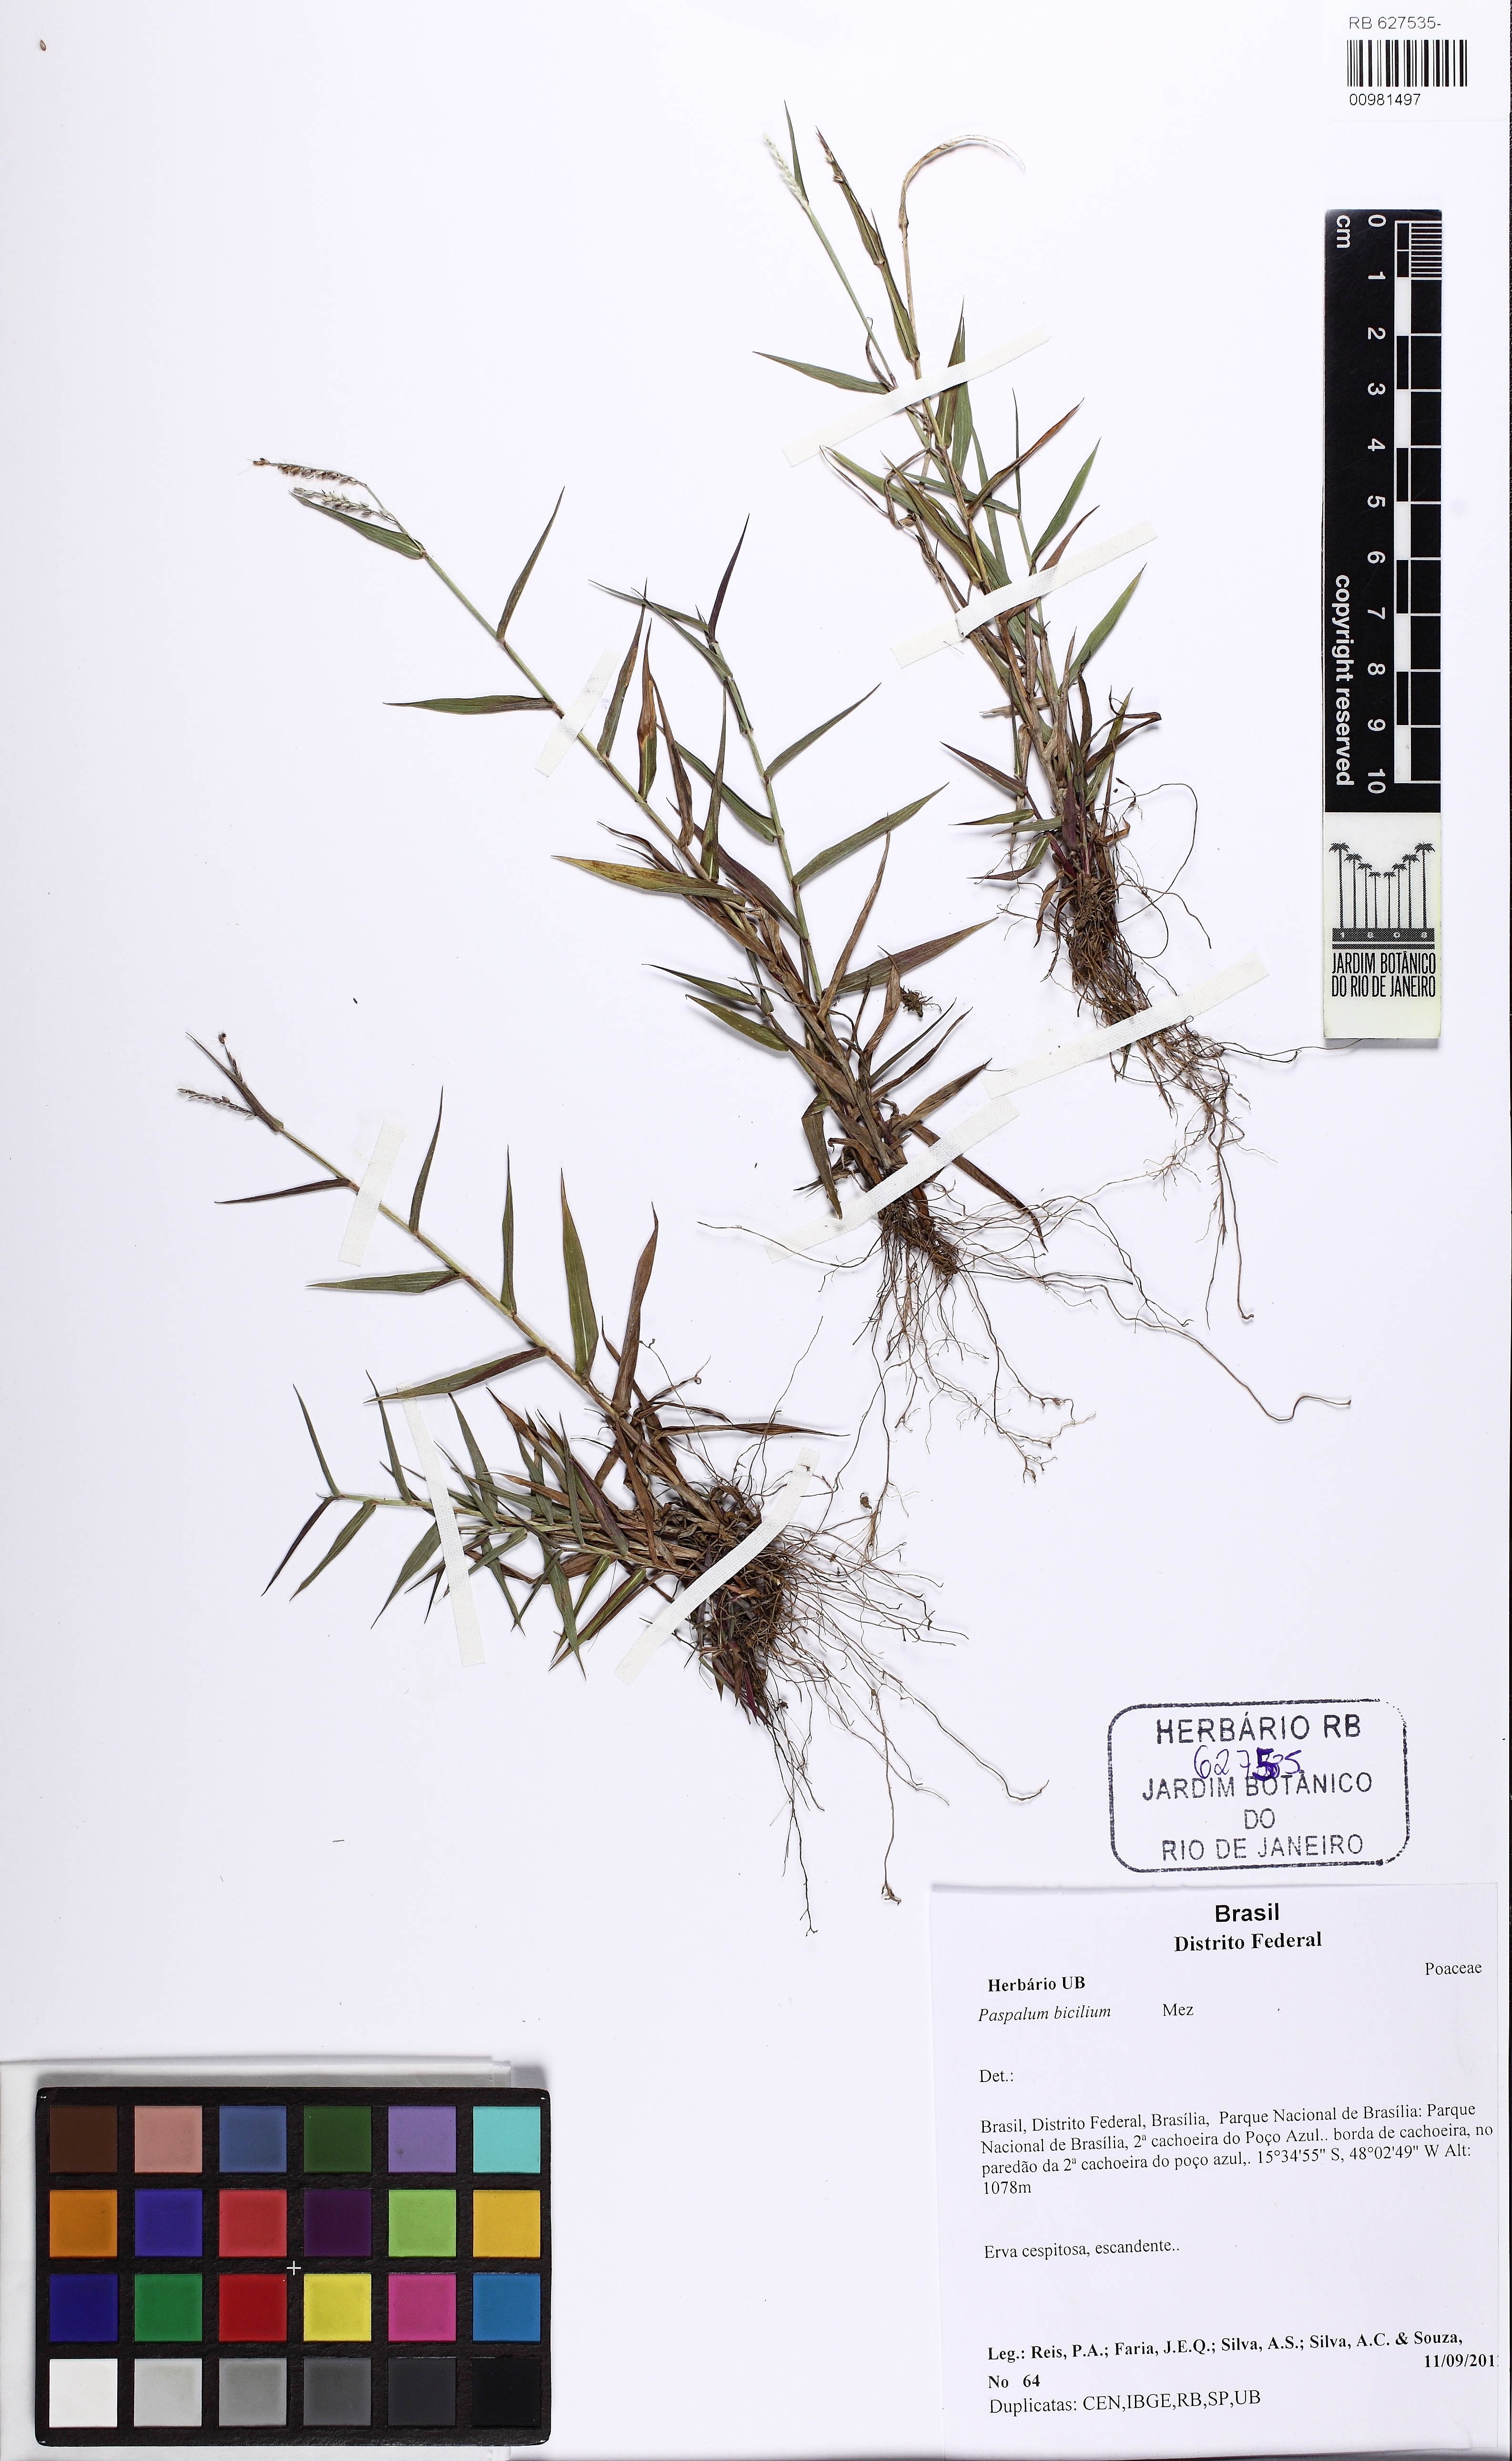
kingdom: Plantae
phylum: Tracheophyta
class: Liliopsida
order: Poales
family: Poaceae
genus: Paspalum
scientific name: Paspalum polyphyllum
